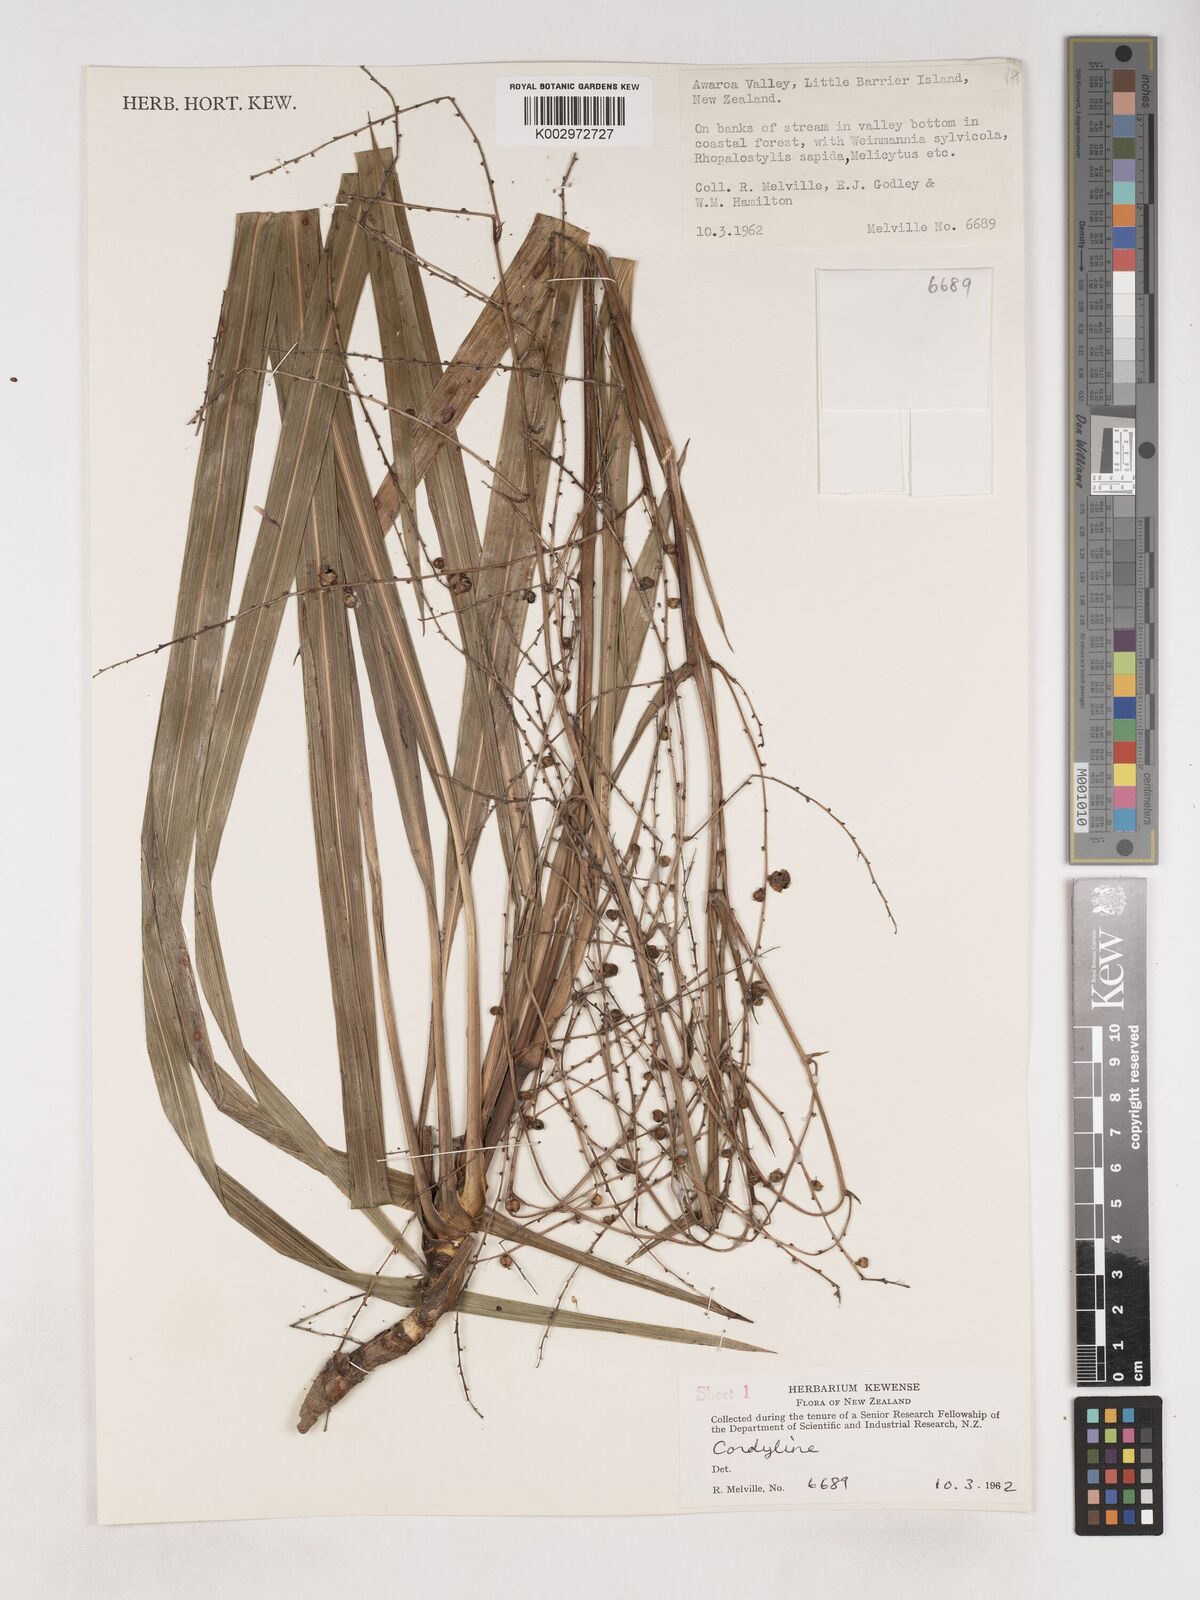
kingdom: Plantae
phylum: Tracheophyta
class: Liliopsida
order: Asparagales
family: Asparagaceae
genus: Cordyline
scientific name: Cordyline
